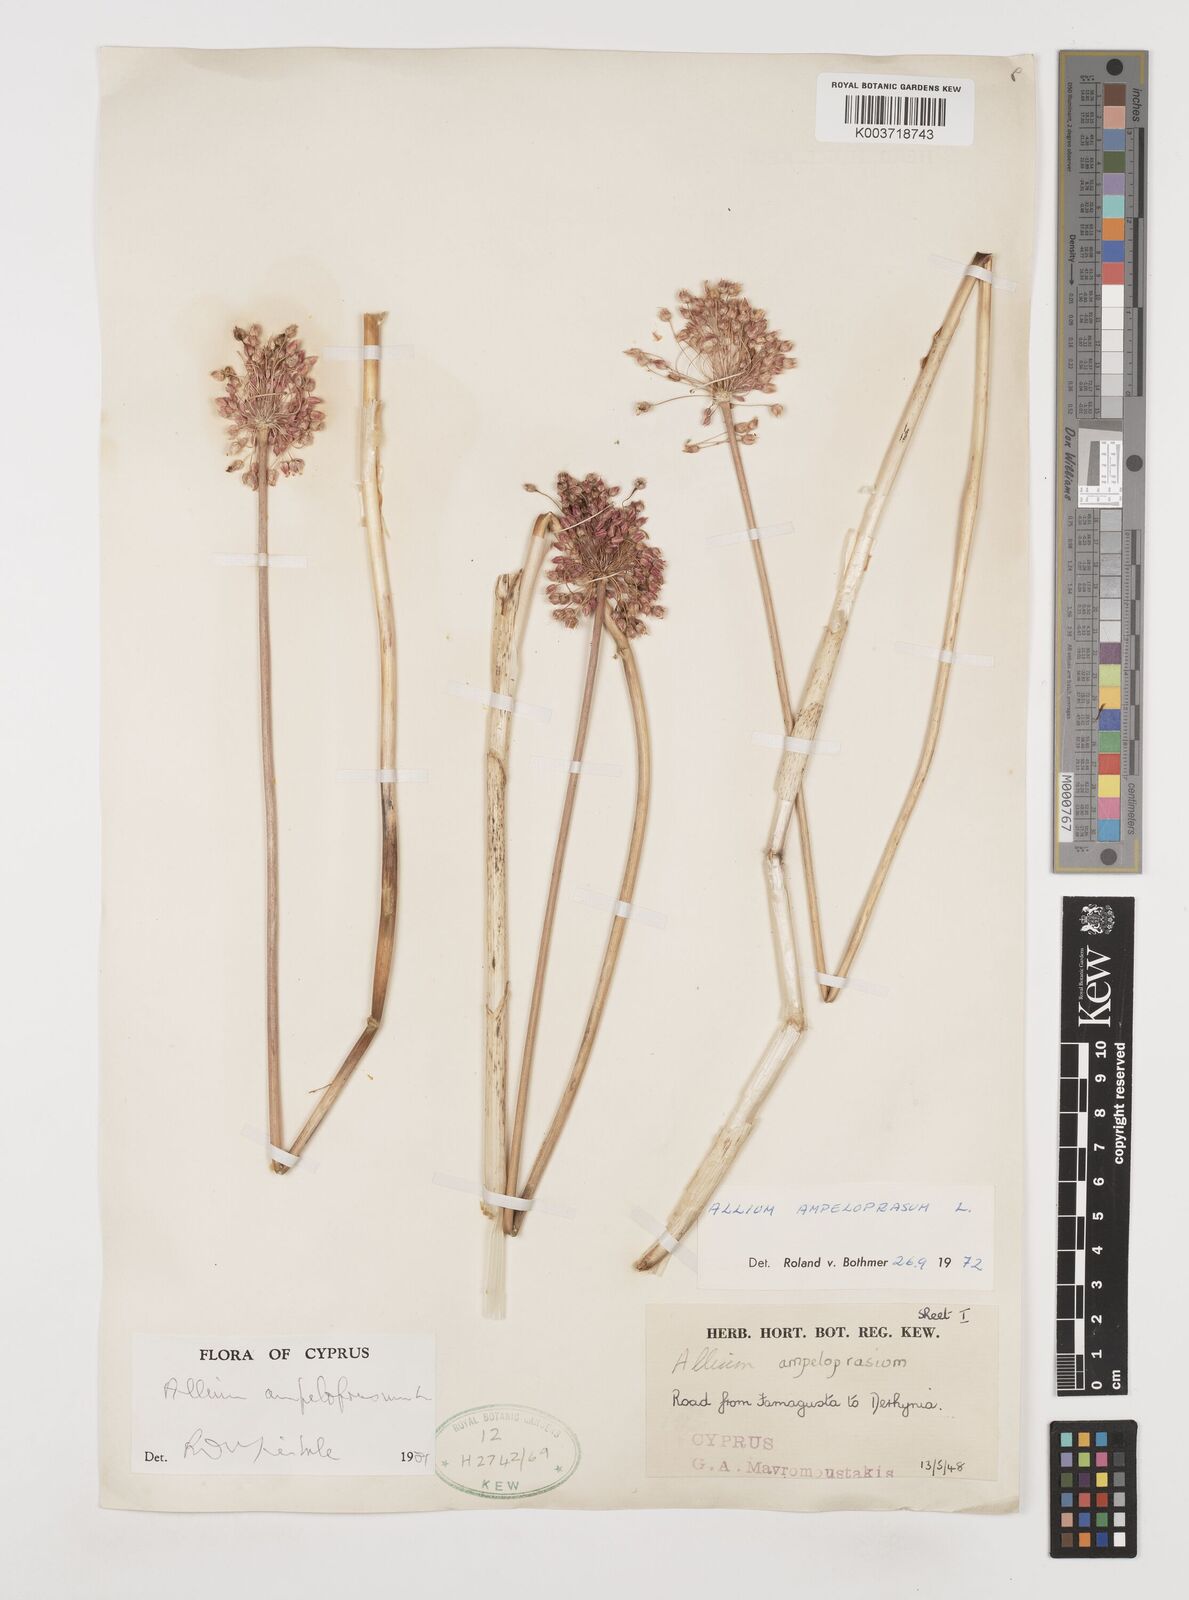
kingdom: Plantae
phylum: Tracheophyta
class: Liliopsida
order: Asparagales
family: Amaryllidaceae
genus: Allium
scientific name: Allium rotundum
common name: Sand leek
